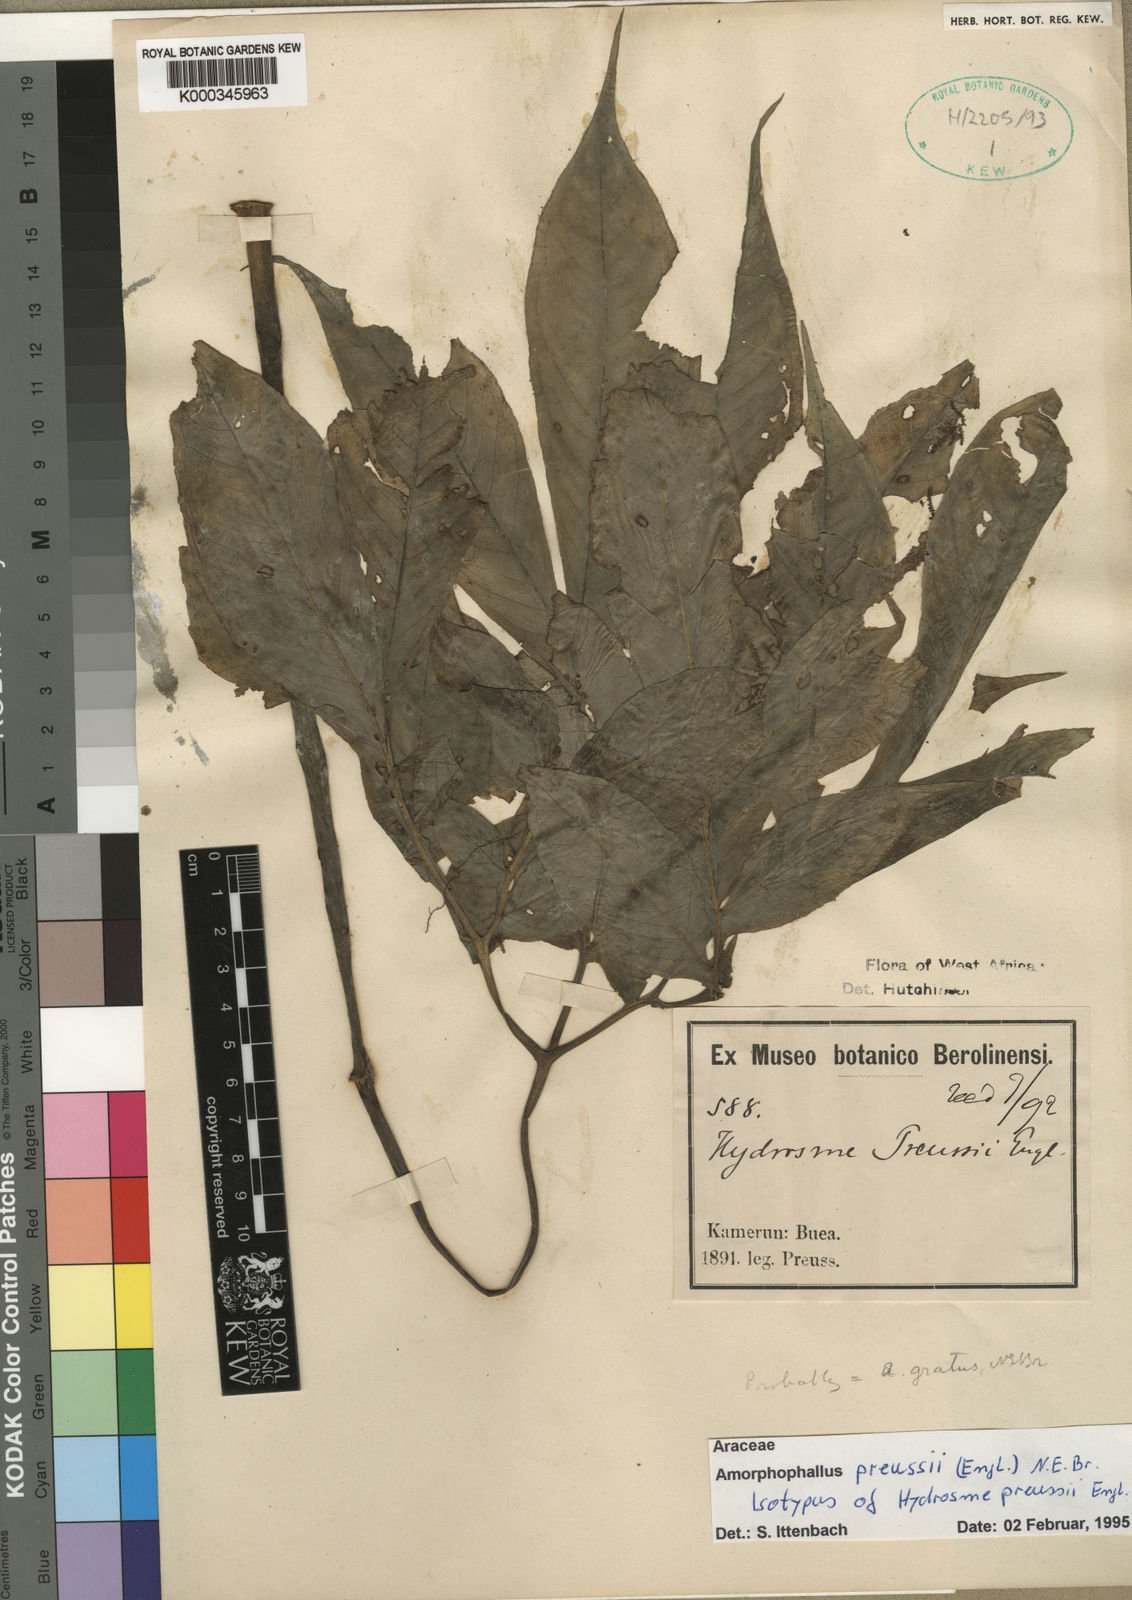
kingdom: Plantae
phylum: Tracheophyta
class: Liliopsida
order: Alismatales
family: Araceae
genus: Amorphophallus
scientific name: Amorphophallus preussii
